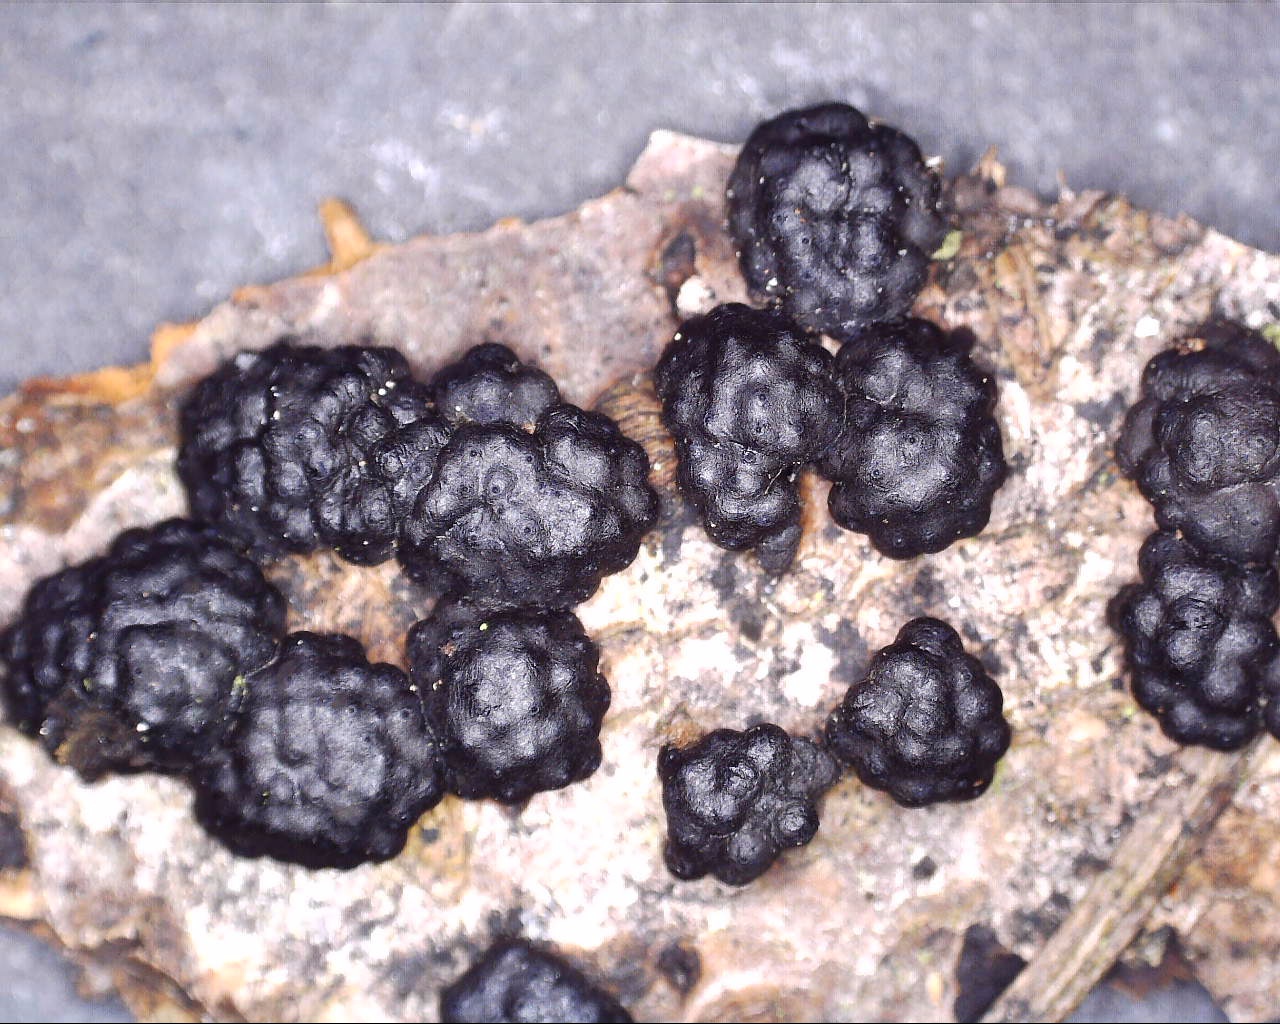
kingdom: Fungi
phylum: Ascomycota
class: Sordariomycetes
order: Xylariales
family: Hypoxylaceae
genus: Jackrogersella
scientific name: Jackrogersella cohaerens
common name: sammenflydende kulbær
